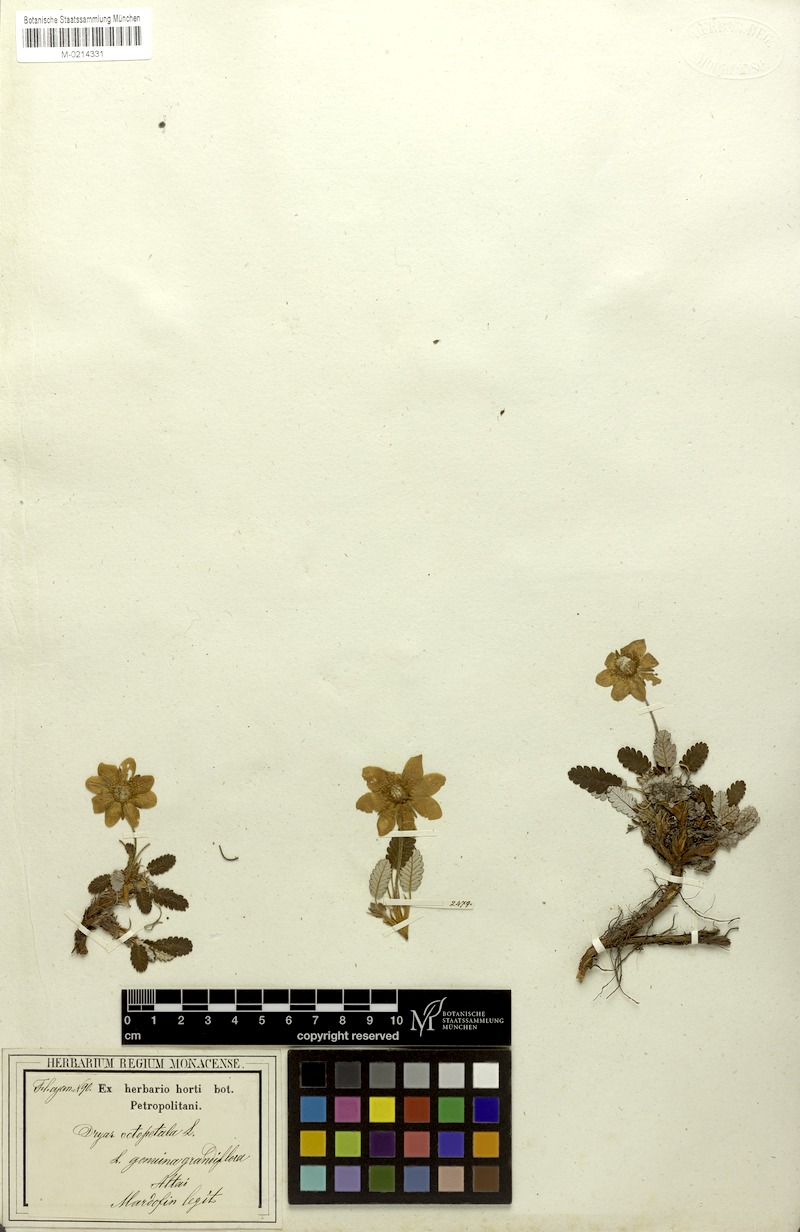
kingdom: Plantae
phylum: Tracheophyta
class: Magnoliopsida
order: Rosales
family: Rosaceae
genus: Dryas
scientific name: Dryas octopetala
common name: Eight-petal mountain-avens
